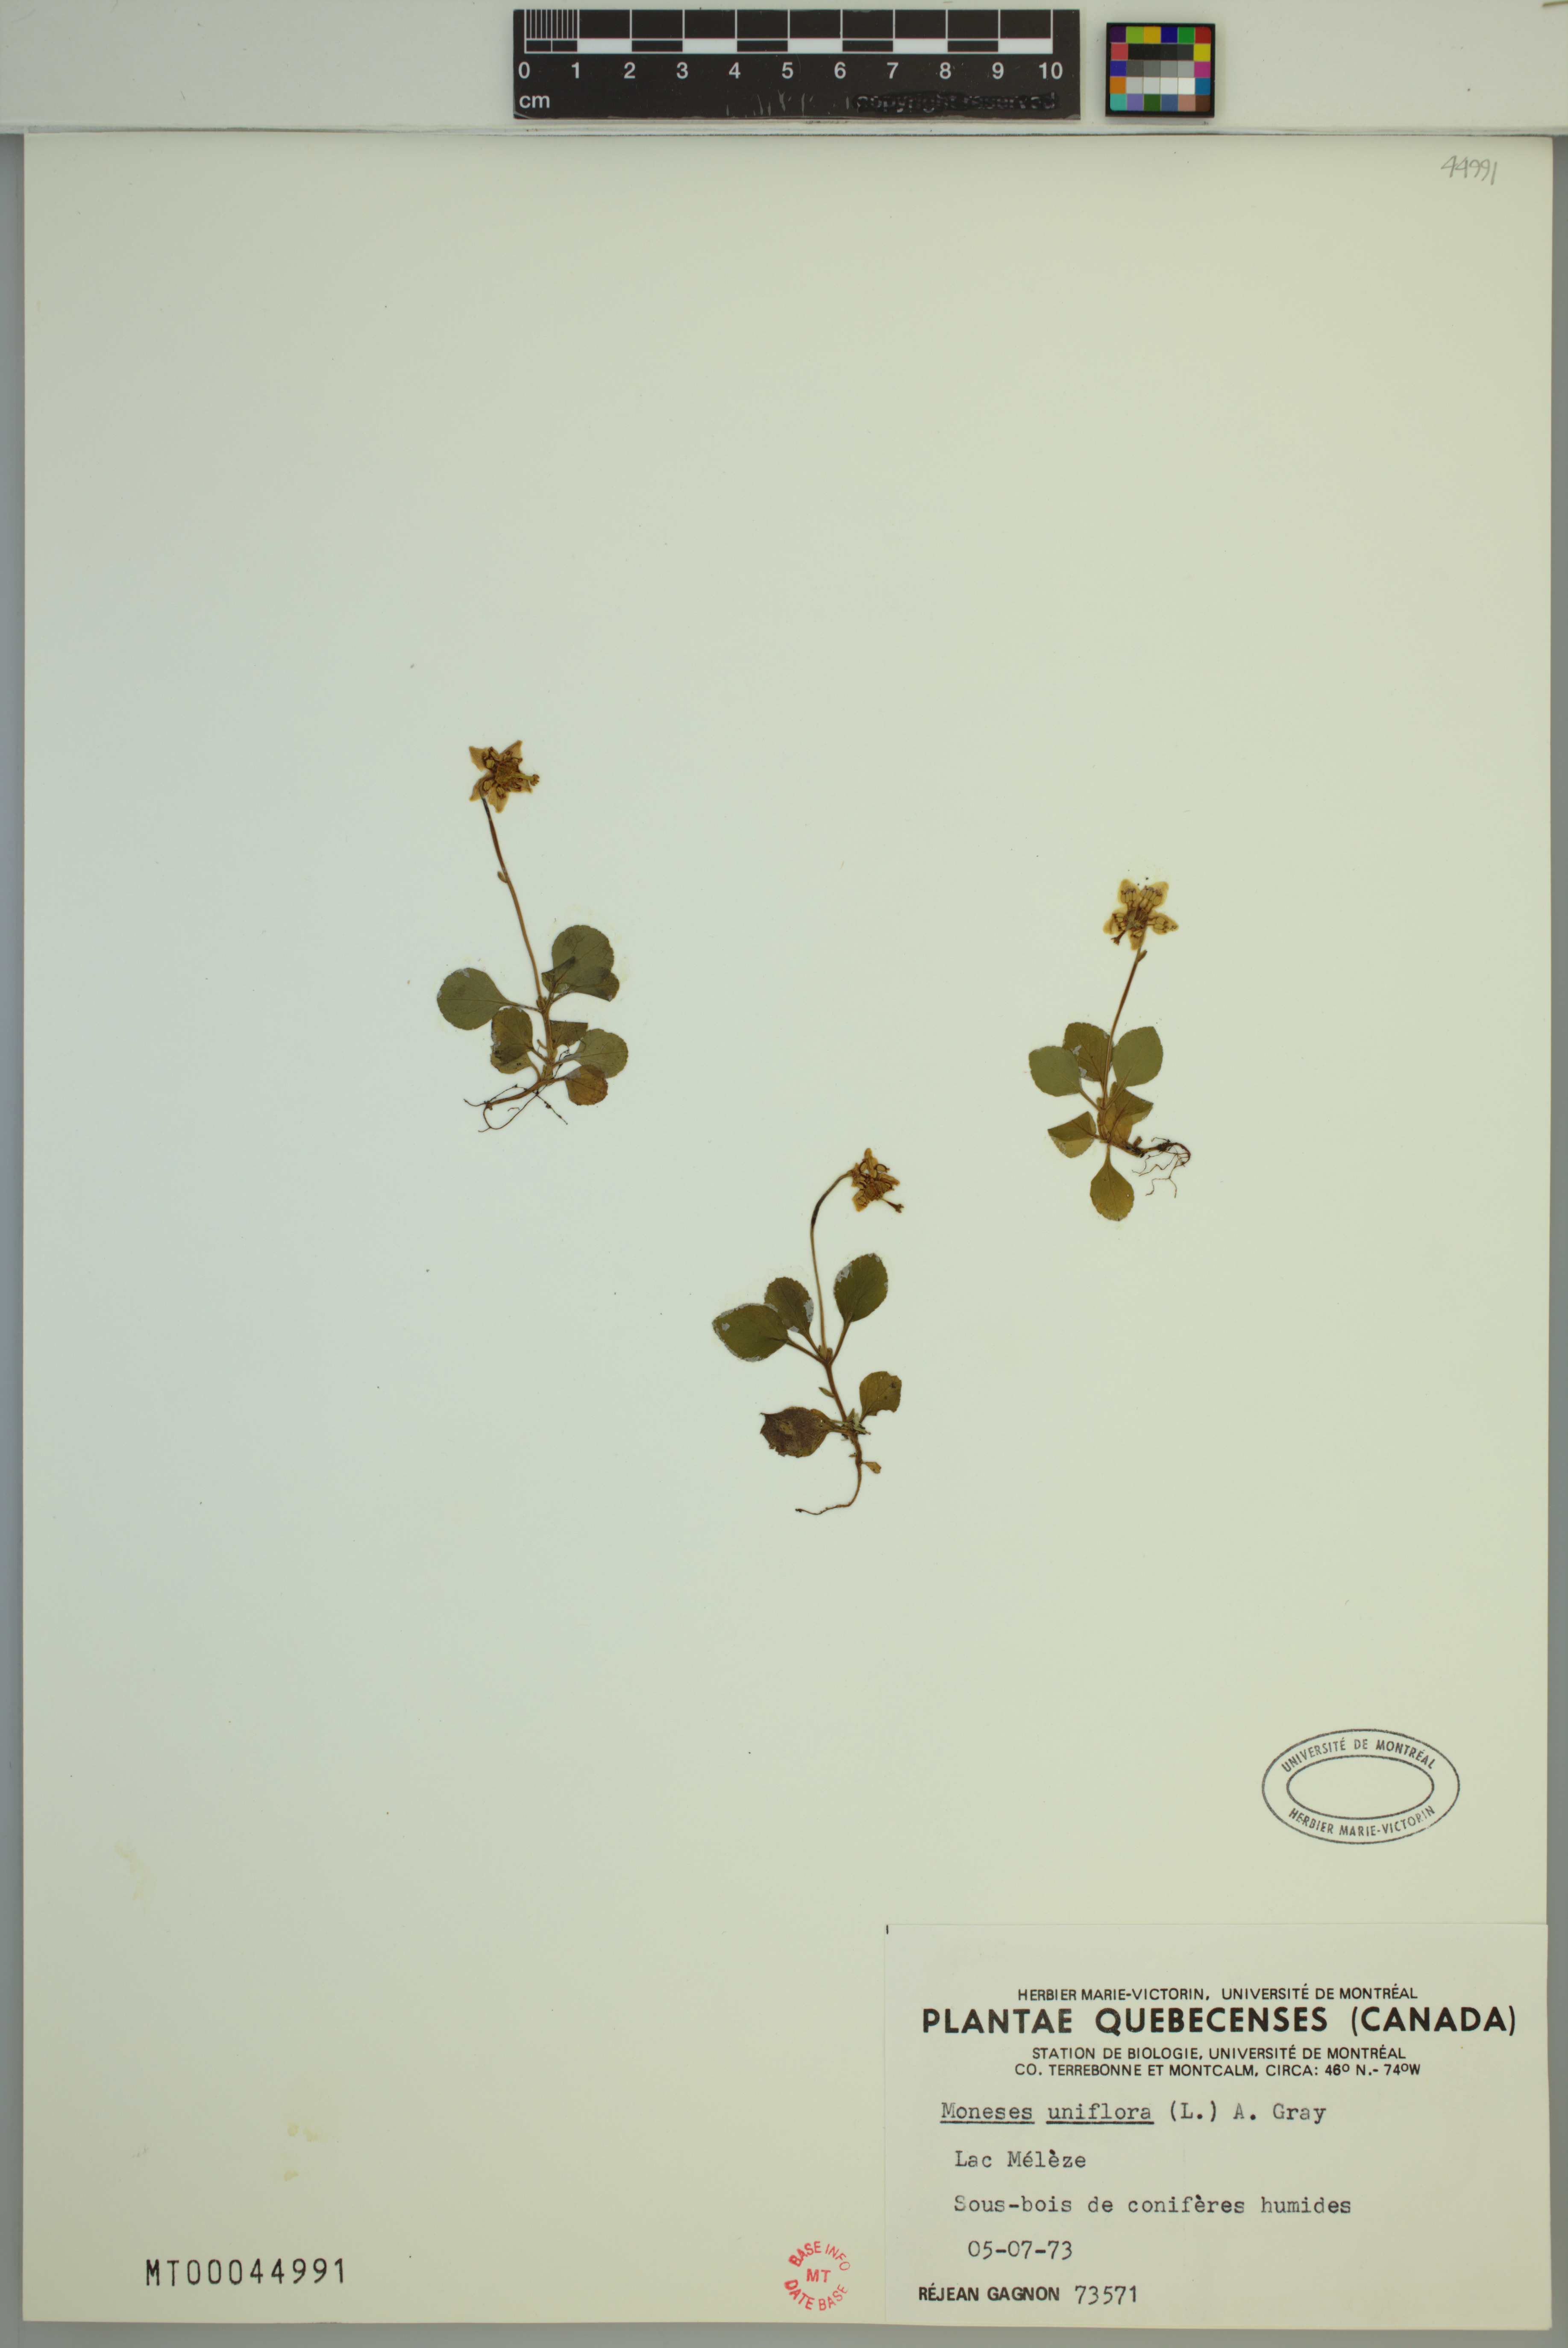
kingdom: Plantae
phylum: Tracheophyta
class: Magnoliopsida
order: Ericales
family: Ericaceae
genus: Moneses
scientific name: Moneses uniflora
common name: One-flowered wintergreen
